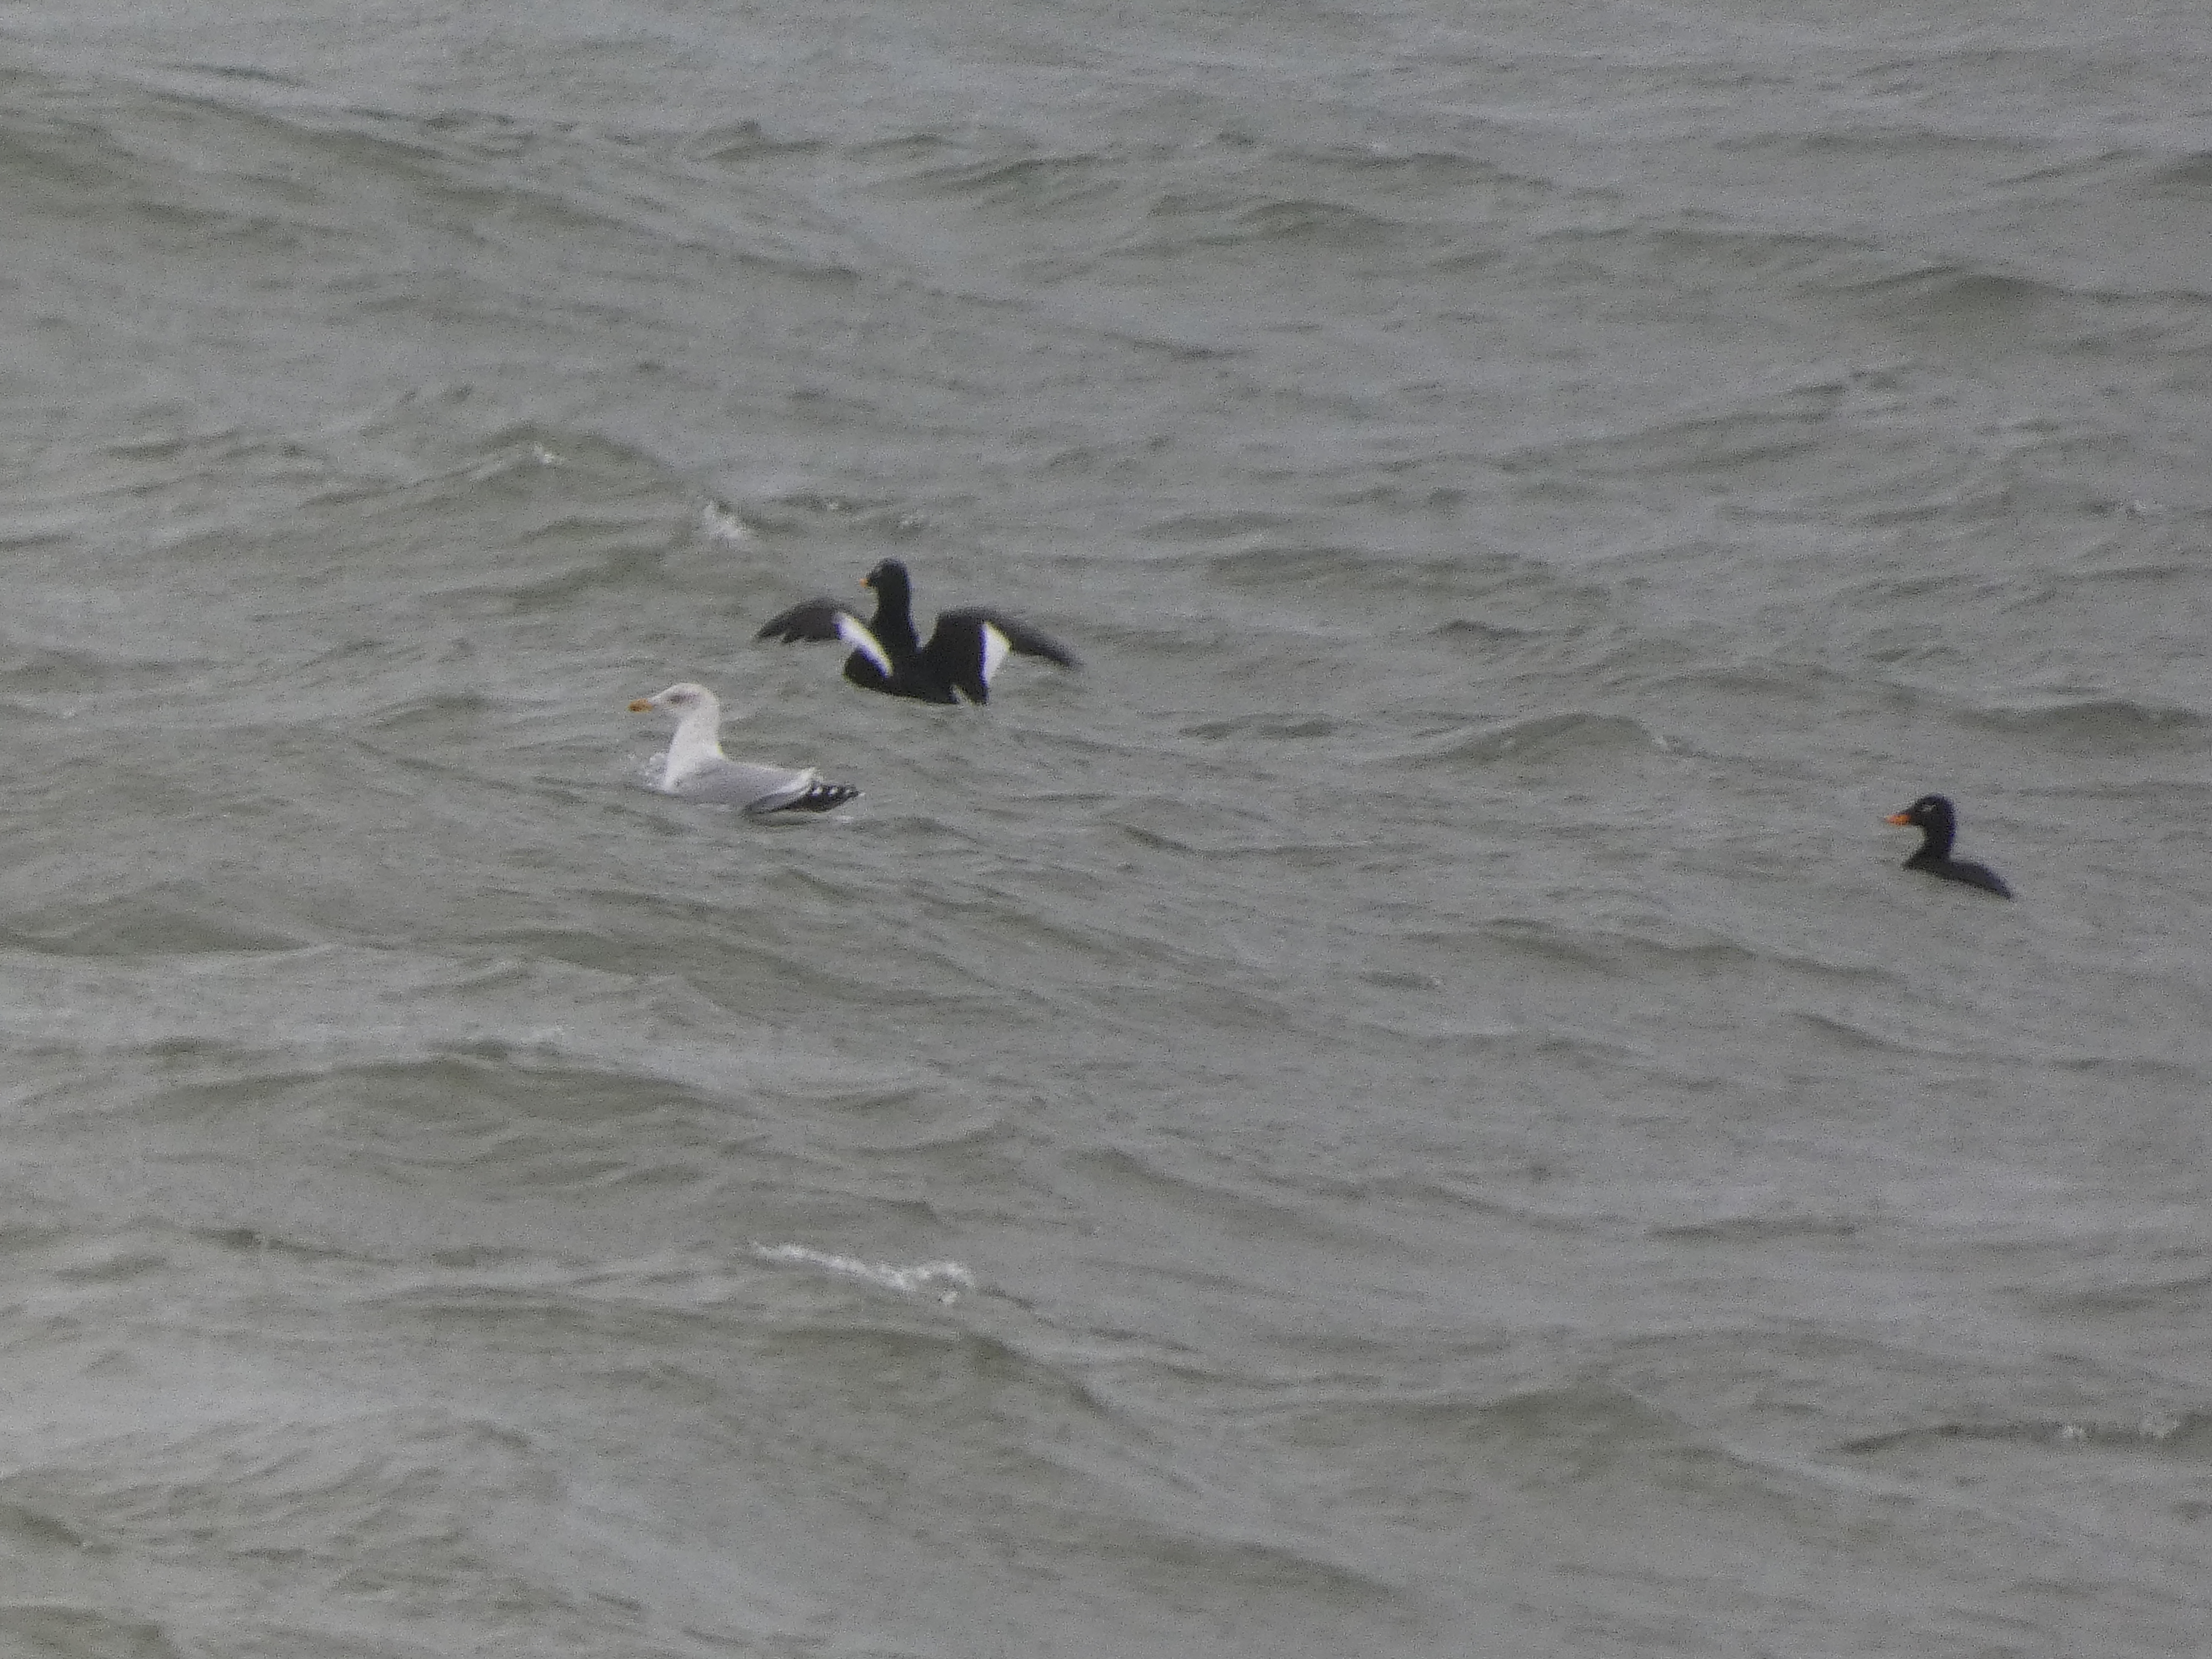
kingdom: Animalia
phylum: Chordata
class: Aves
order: Charadriiformes
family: Laridae
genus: Larus
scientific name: Larus argentatus
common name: Sølvmåge
